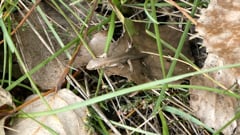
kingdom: Animalia
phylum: Chordata
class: Squamata
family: Lacertidae
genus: Lacerta
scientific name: Lacerta agilis
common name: Sand lizard
